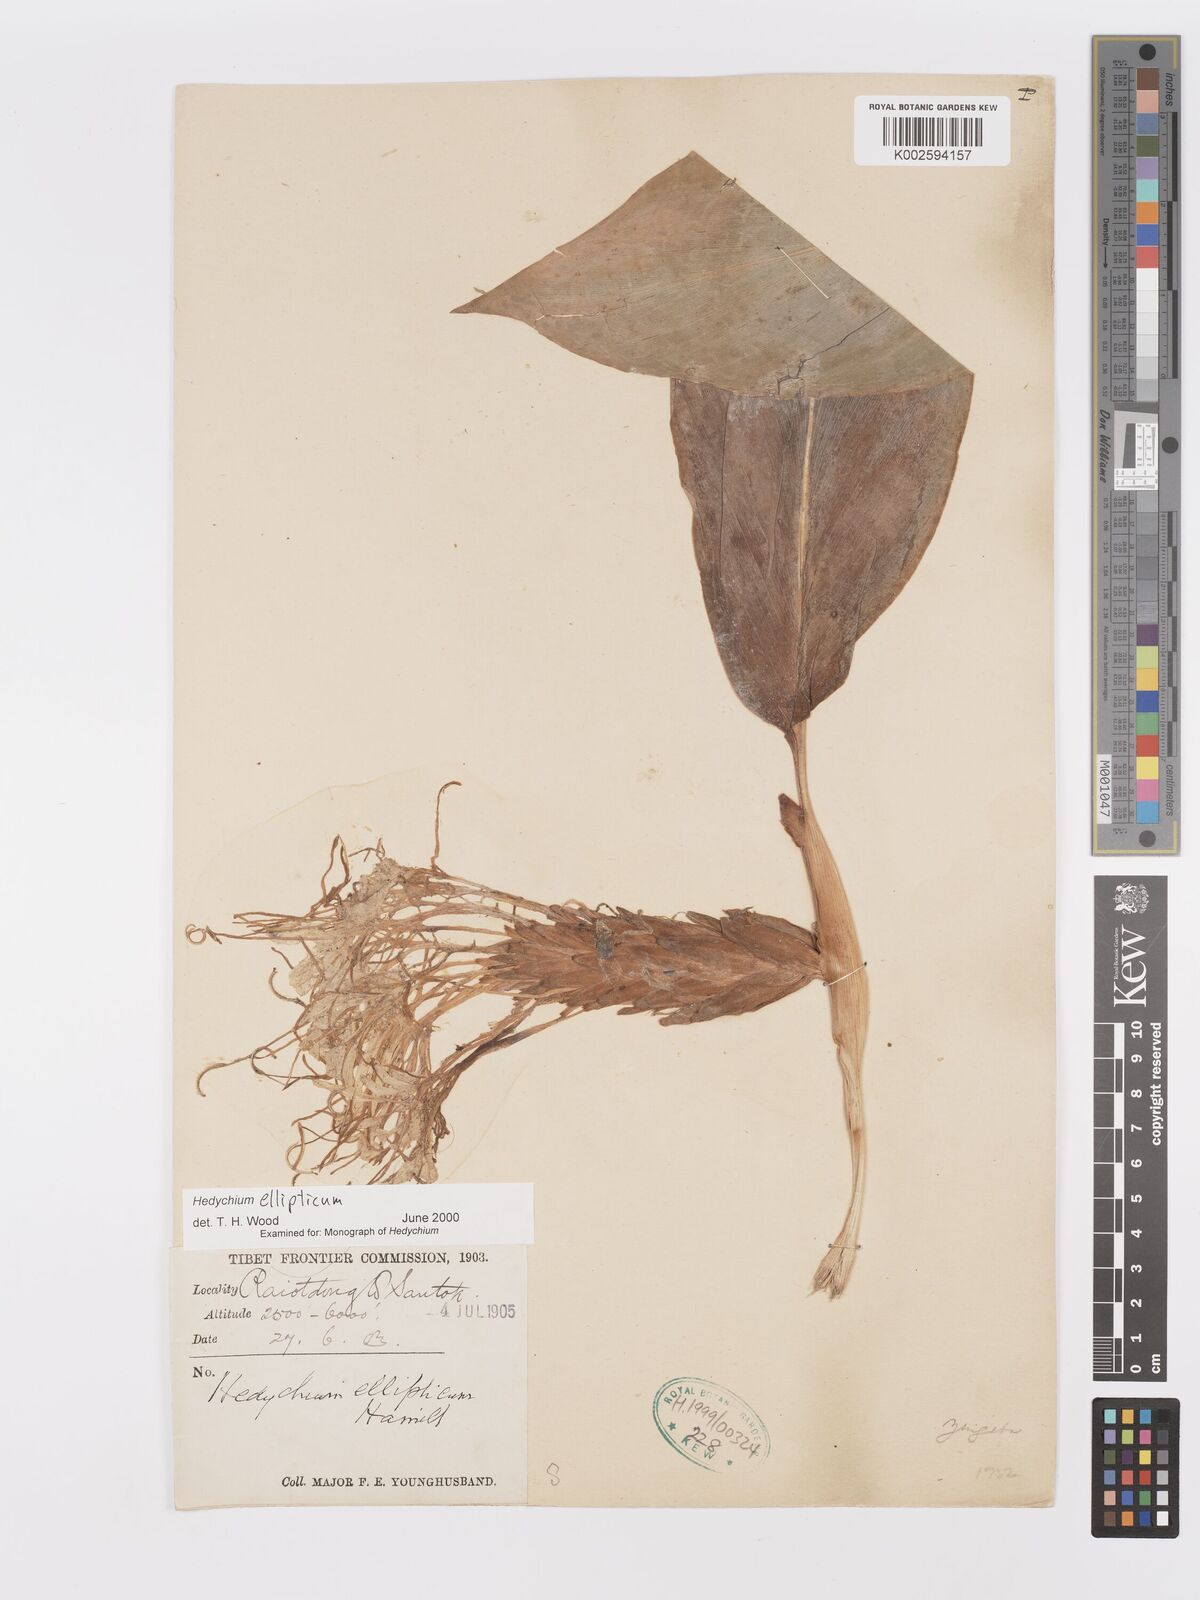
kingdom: Plantae
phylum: Tracheophyta
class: Liliopsida
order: Zingiberales
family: Zingiberaceae
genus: Hedychium
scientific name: Hedychium ellipticum
